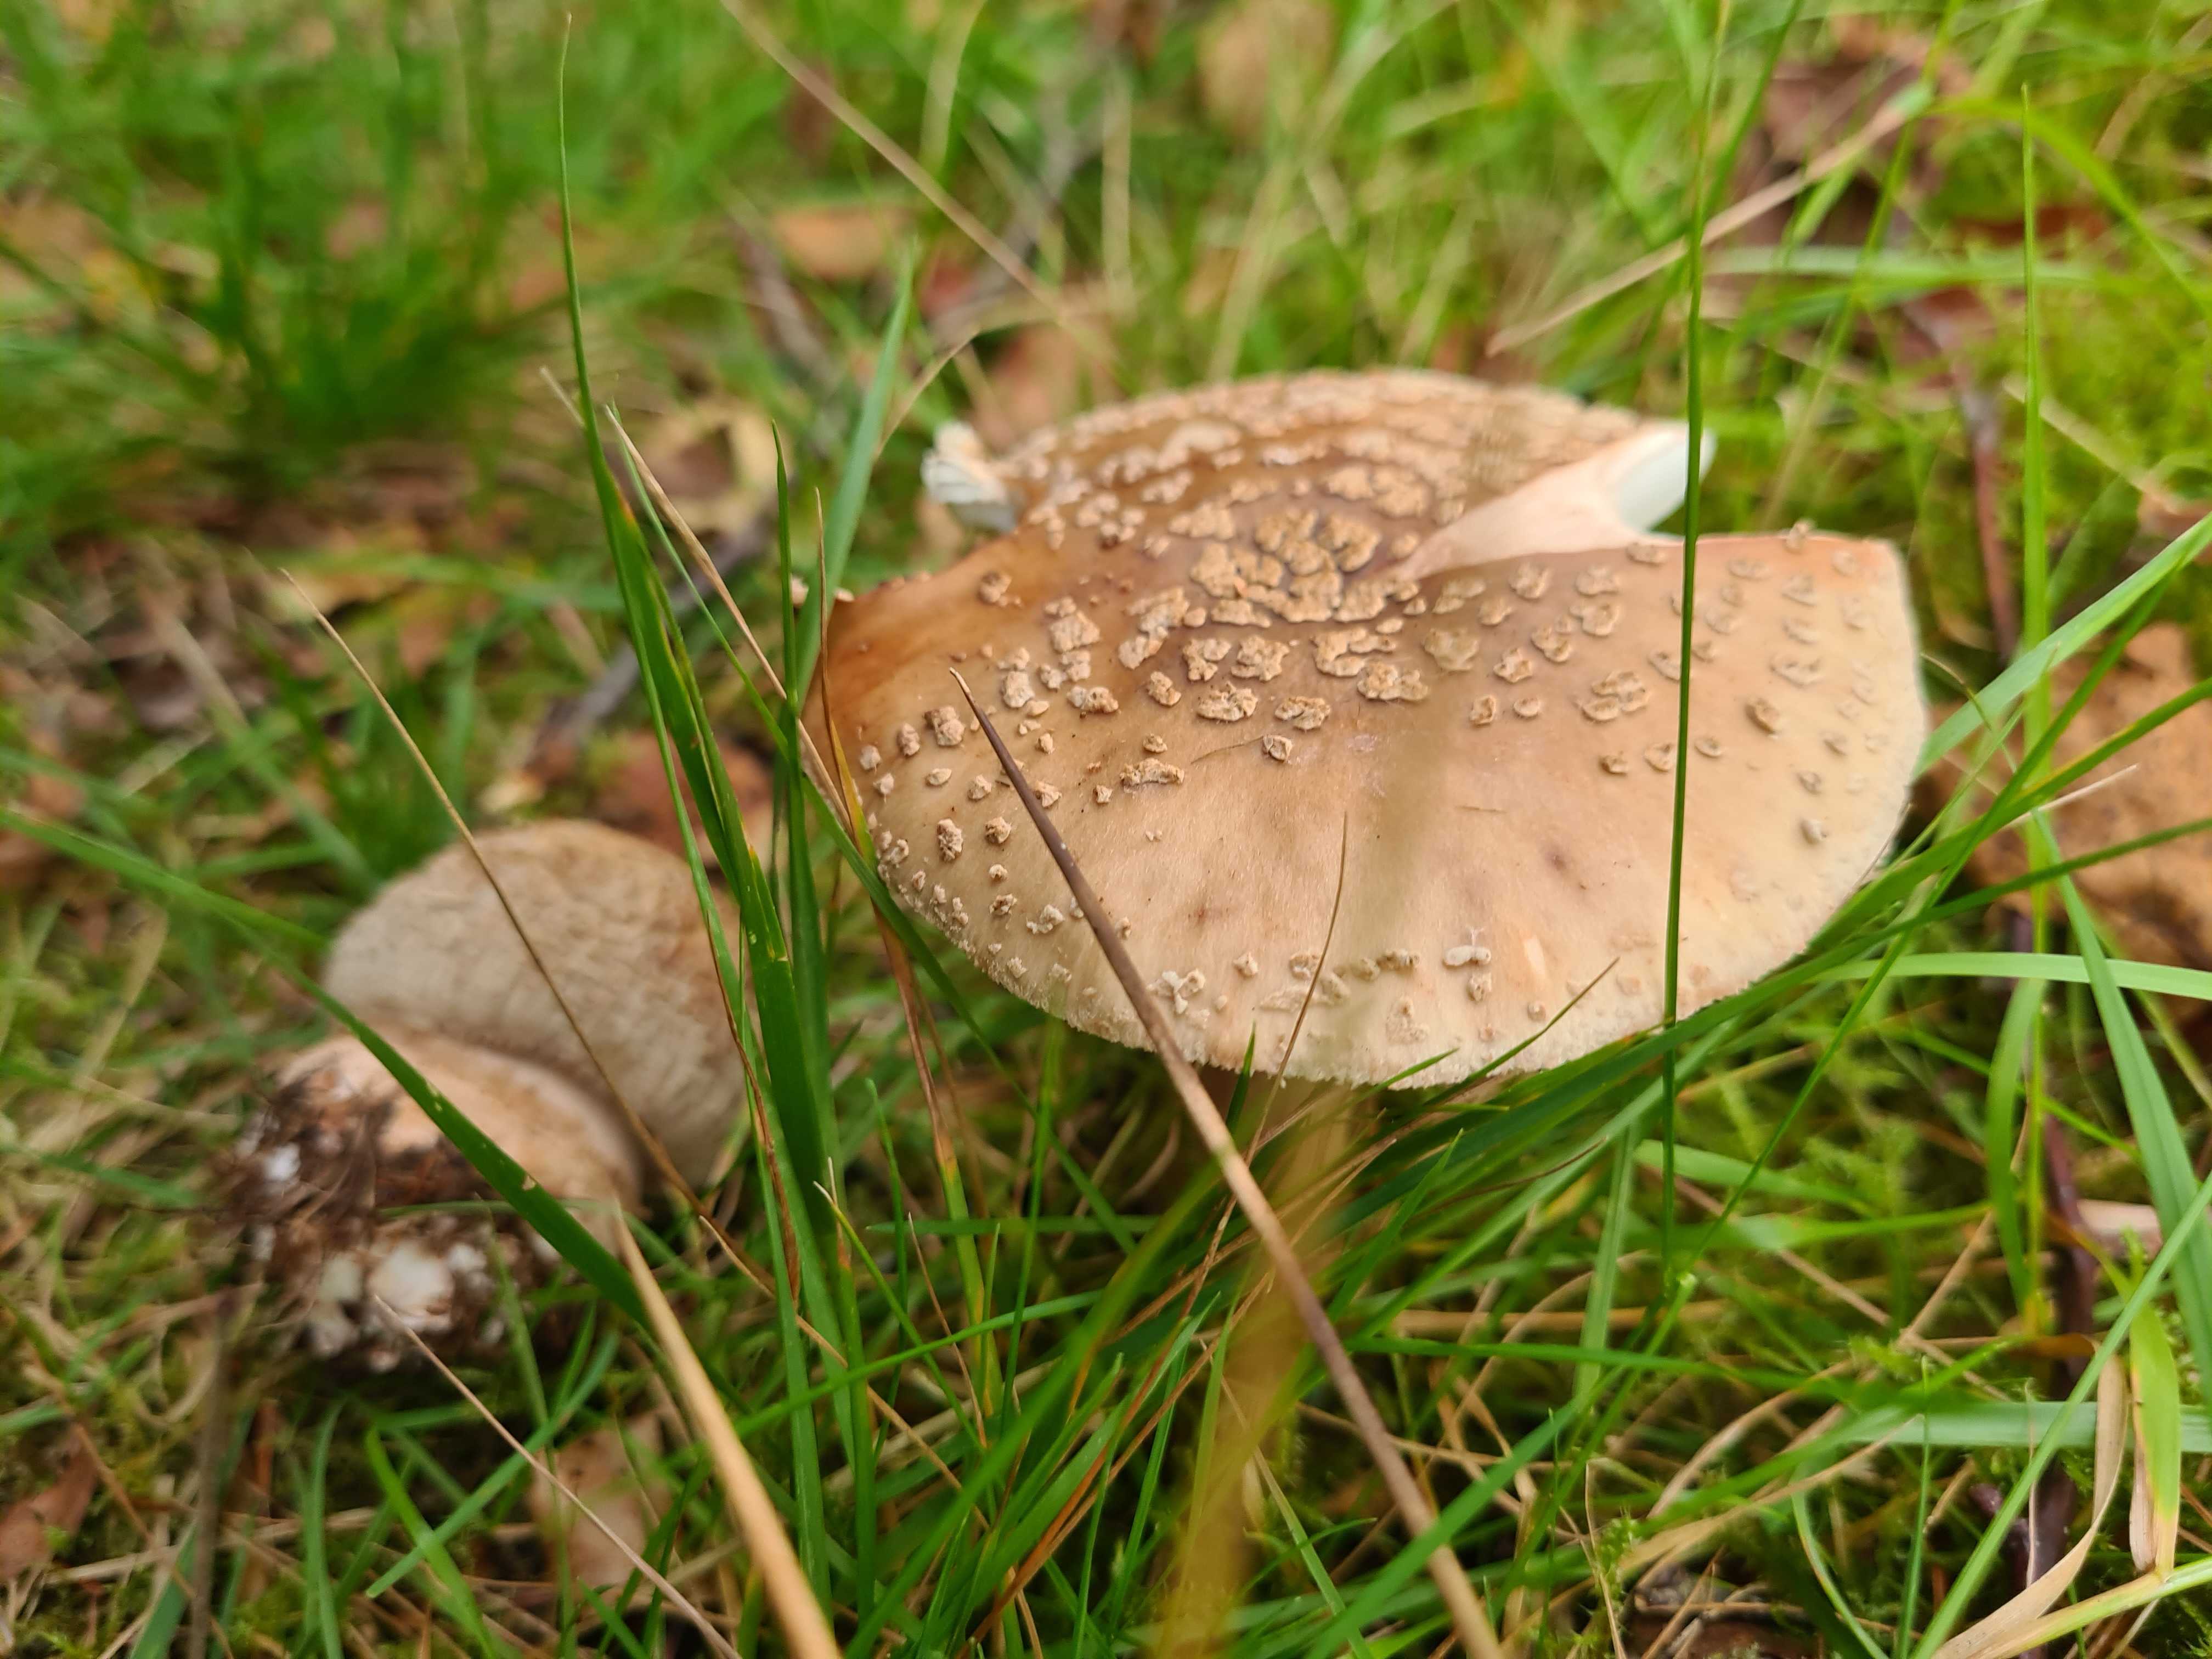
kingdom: Fungi
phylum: Basidiomycota
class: Agaricomycetes
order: Agaricales
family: Amanitaceae
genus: Amanita
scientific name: Amanita rubescens
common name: rødmende fluesvamp
